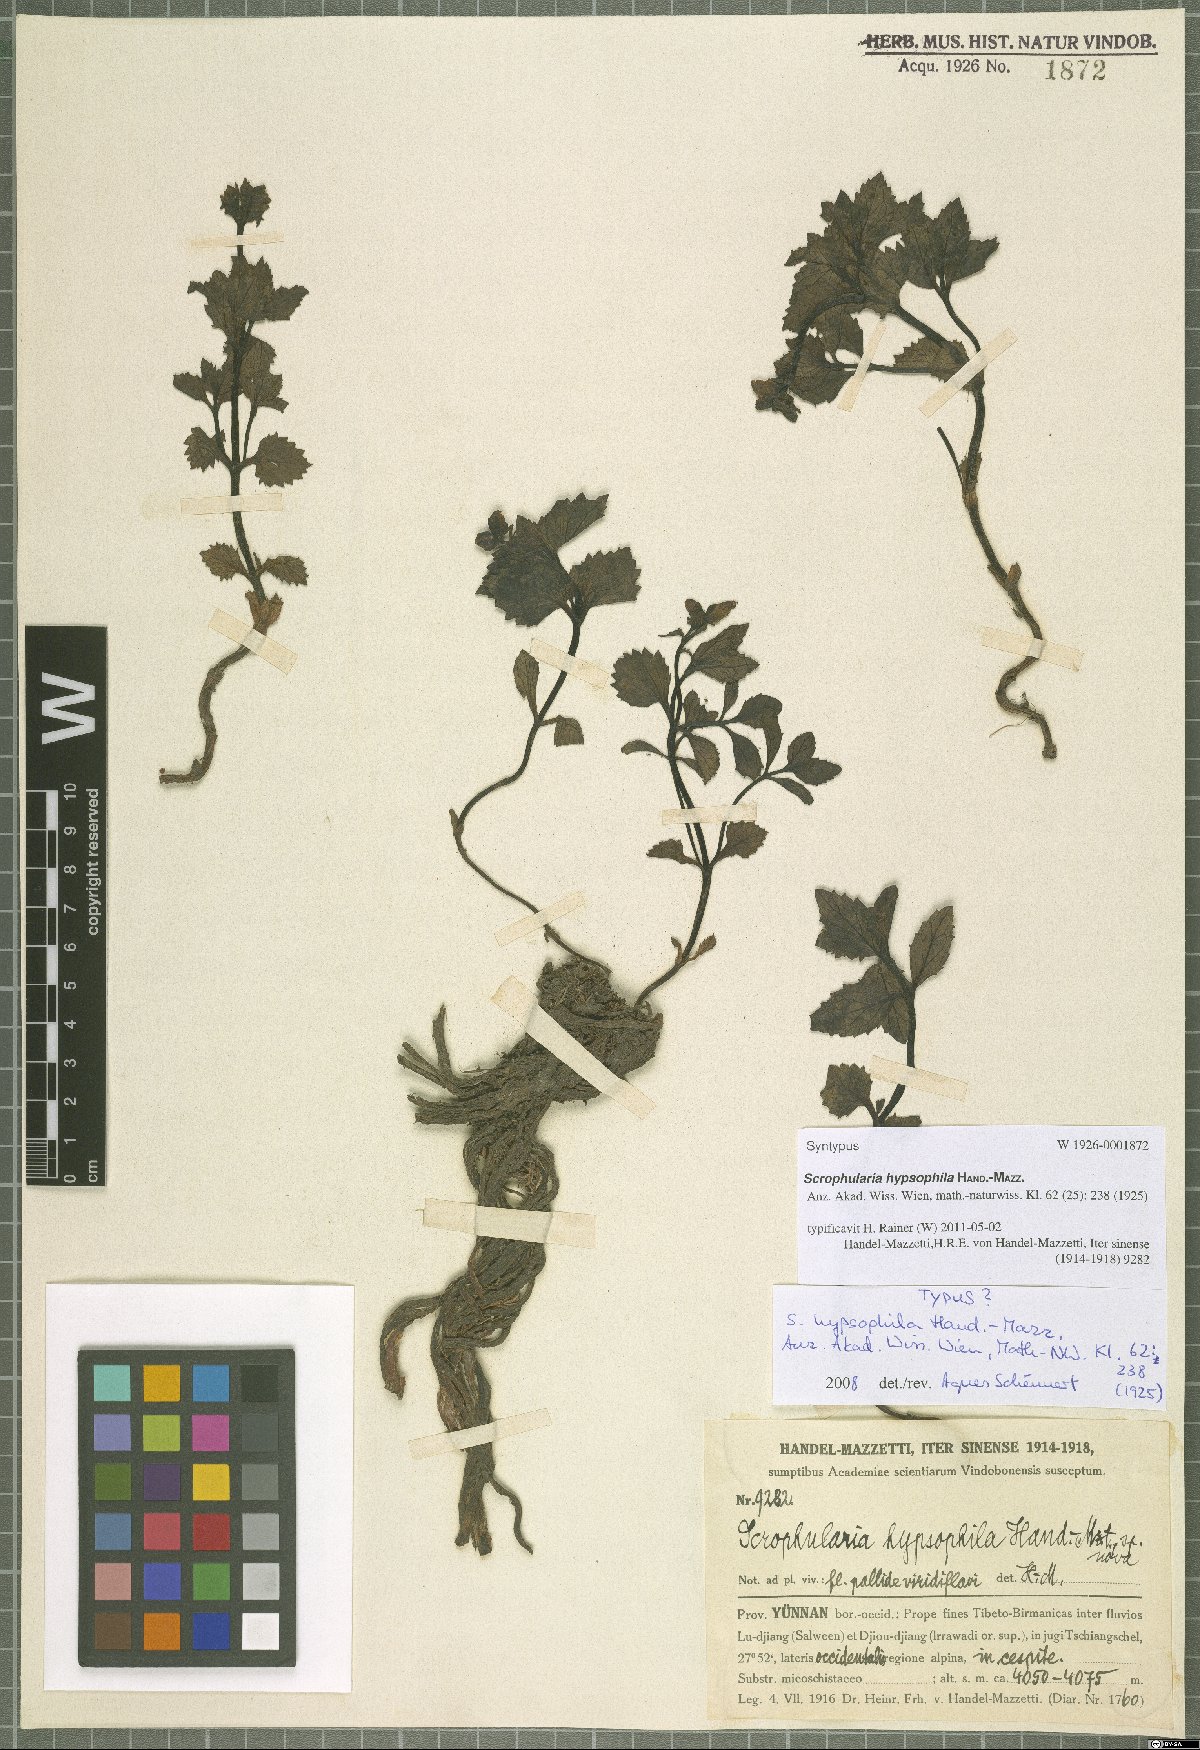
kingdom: Plantae
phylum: Tracheophyta
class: Magnoliopsida
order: Lamiales
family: Scrophulariaceae
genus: Scrophularia
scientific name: Scrophularia hypsophila
